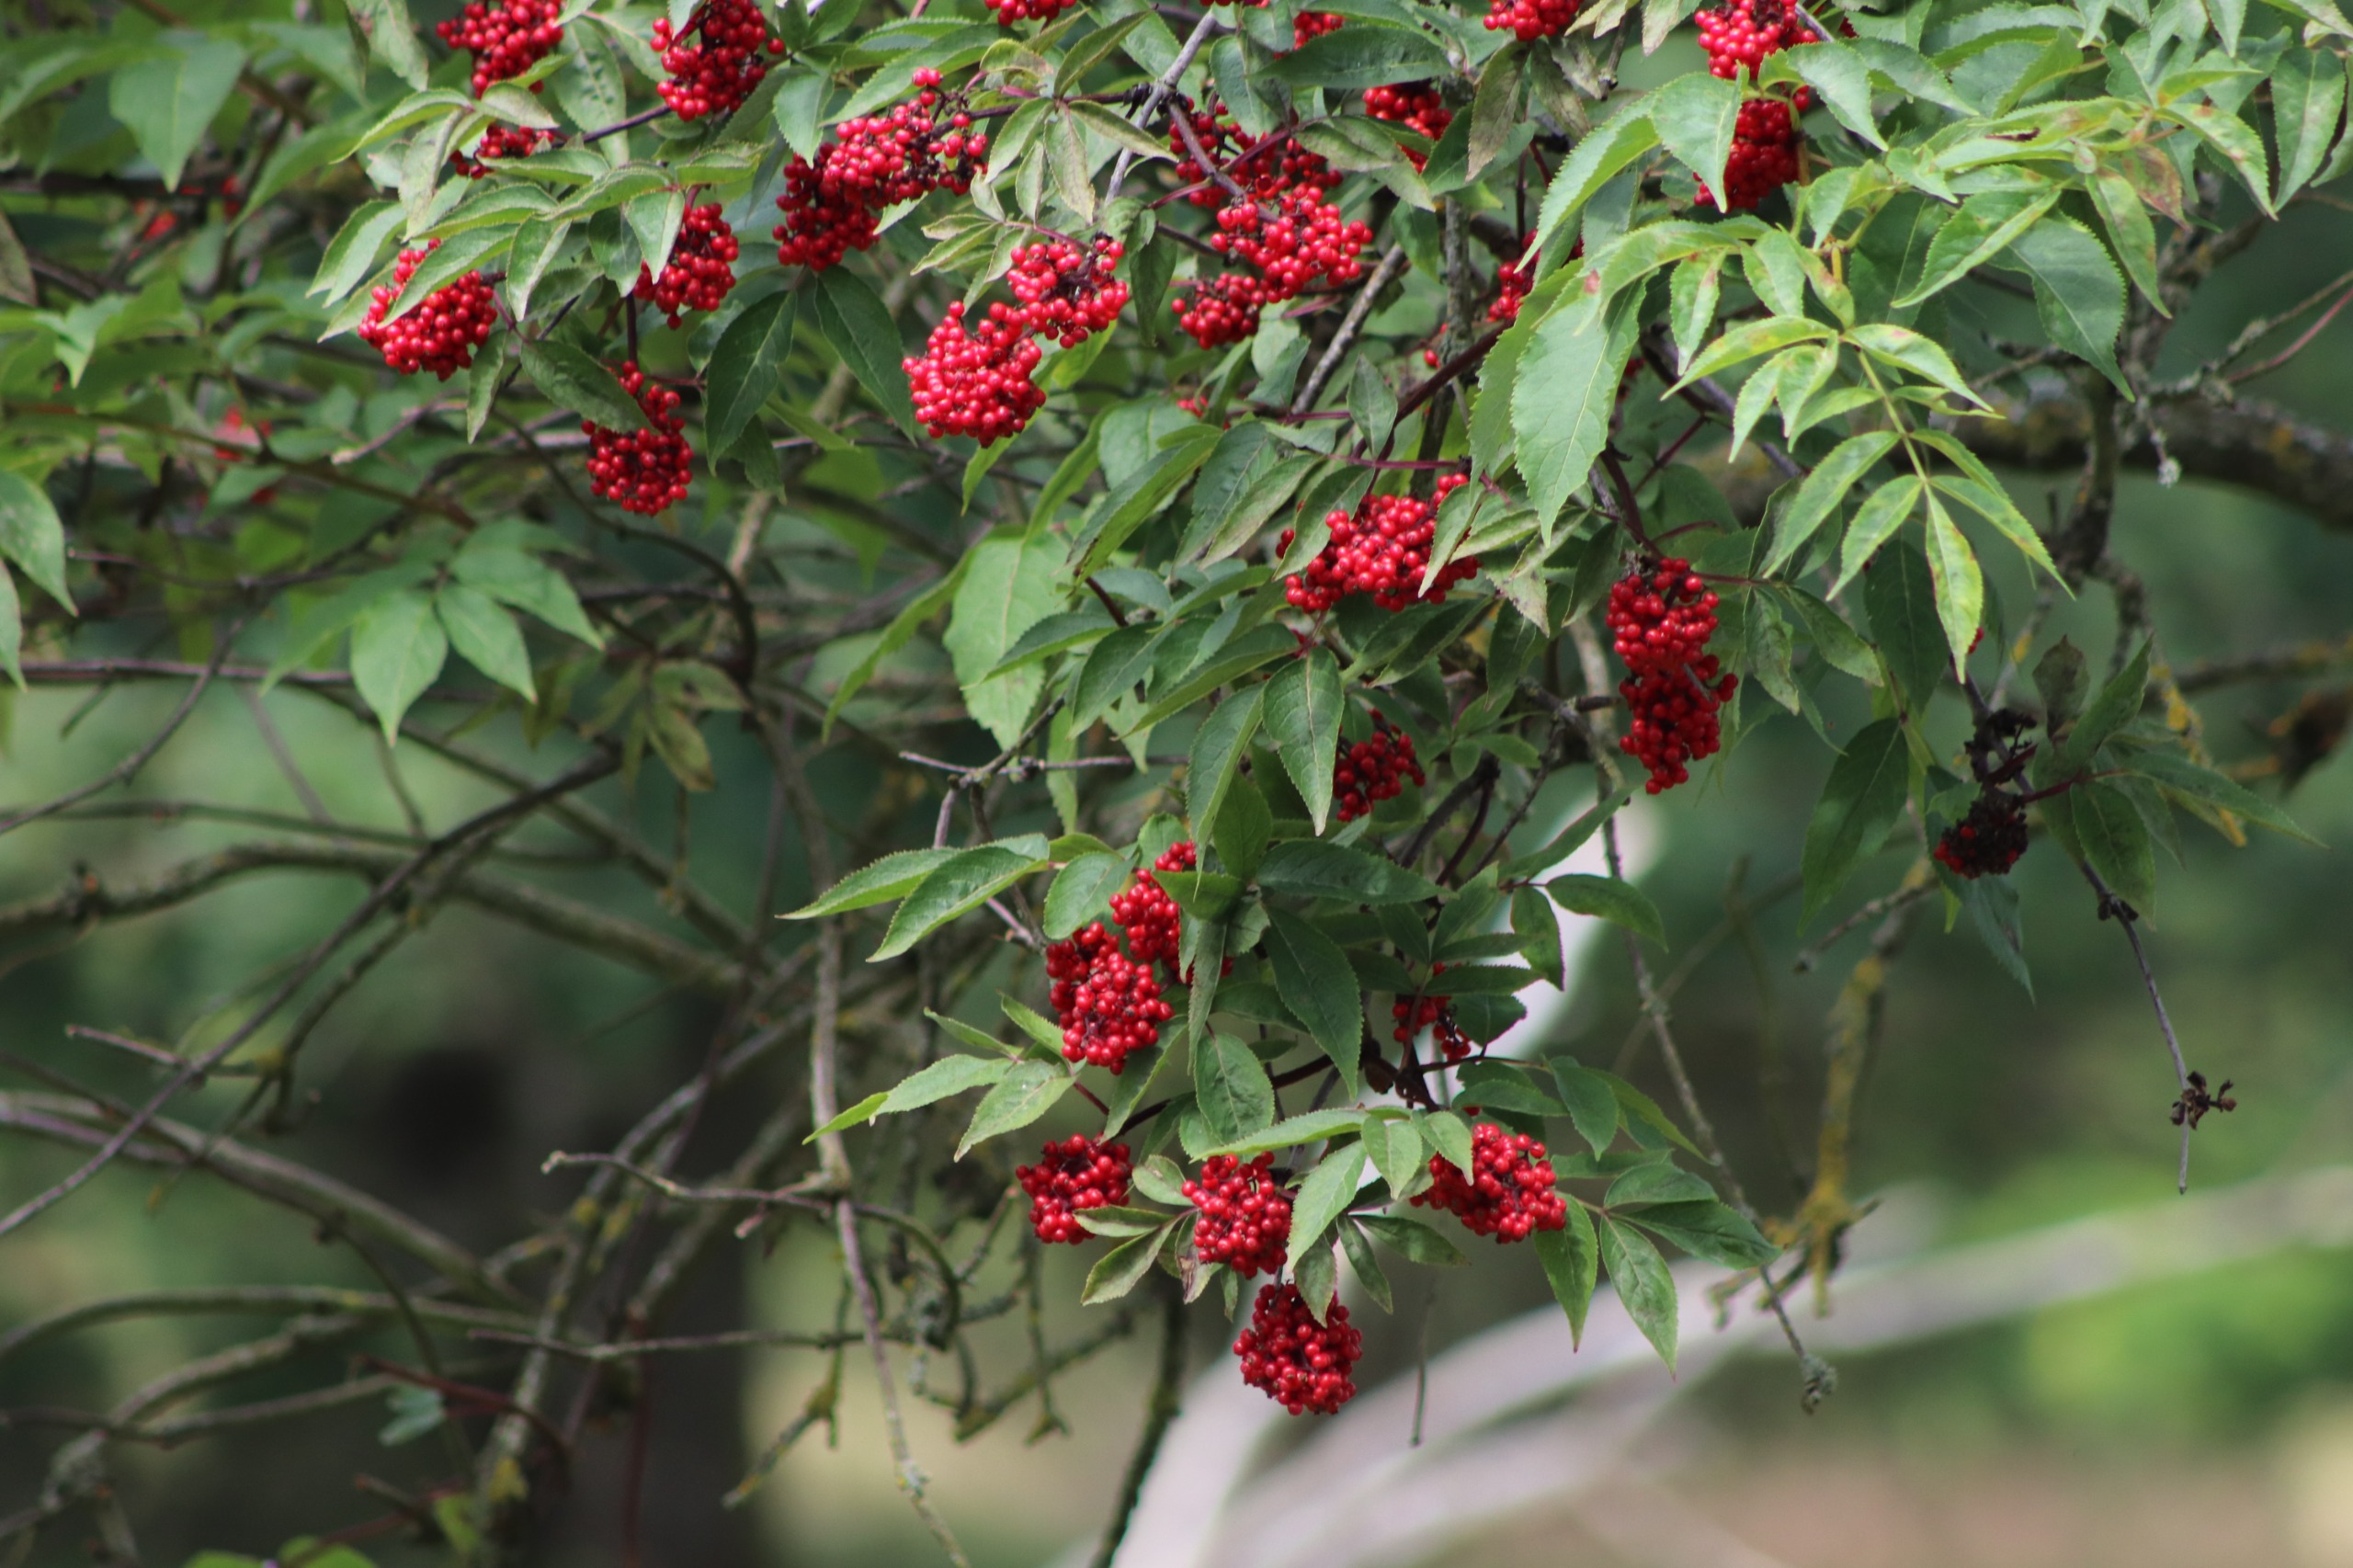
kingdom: Plantae
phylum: Tracheophyta
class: Magnoliopsida
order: Dipsacales
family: Viburnaceae
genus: Sambucus
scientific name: Sambucus racemosa
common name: Drue-hyld
